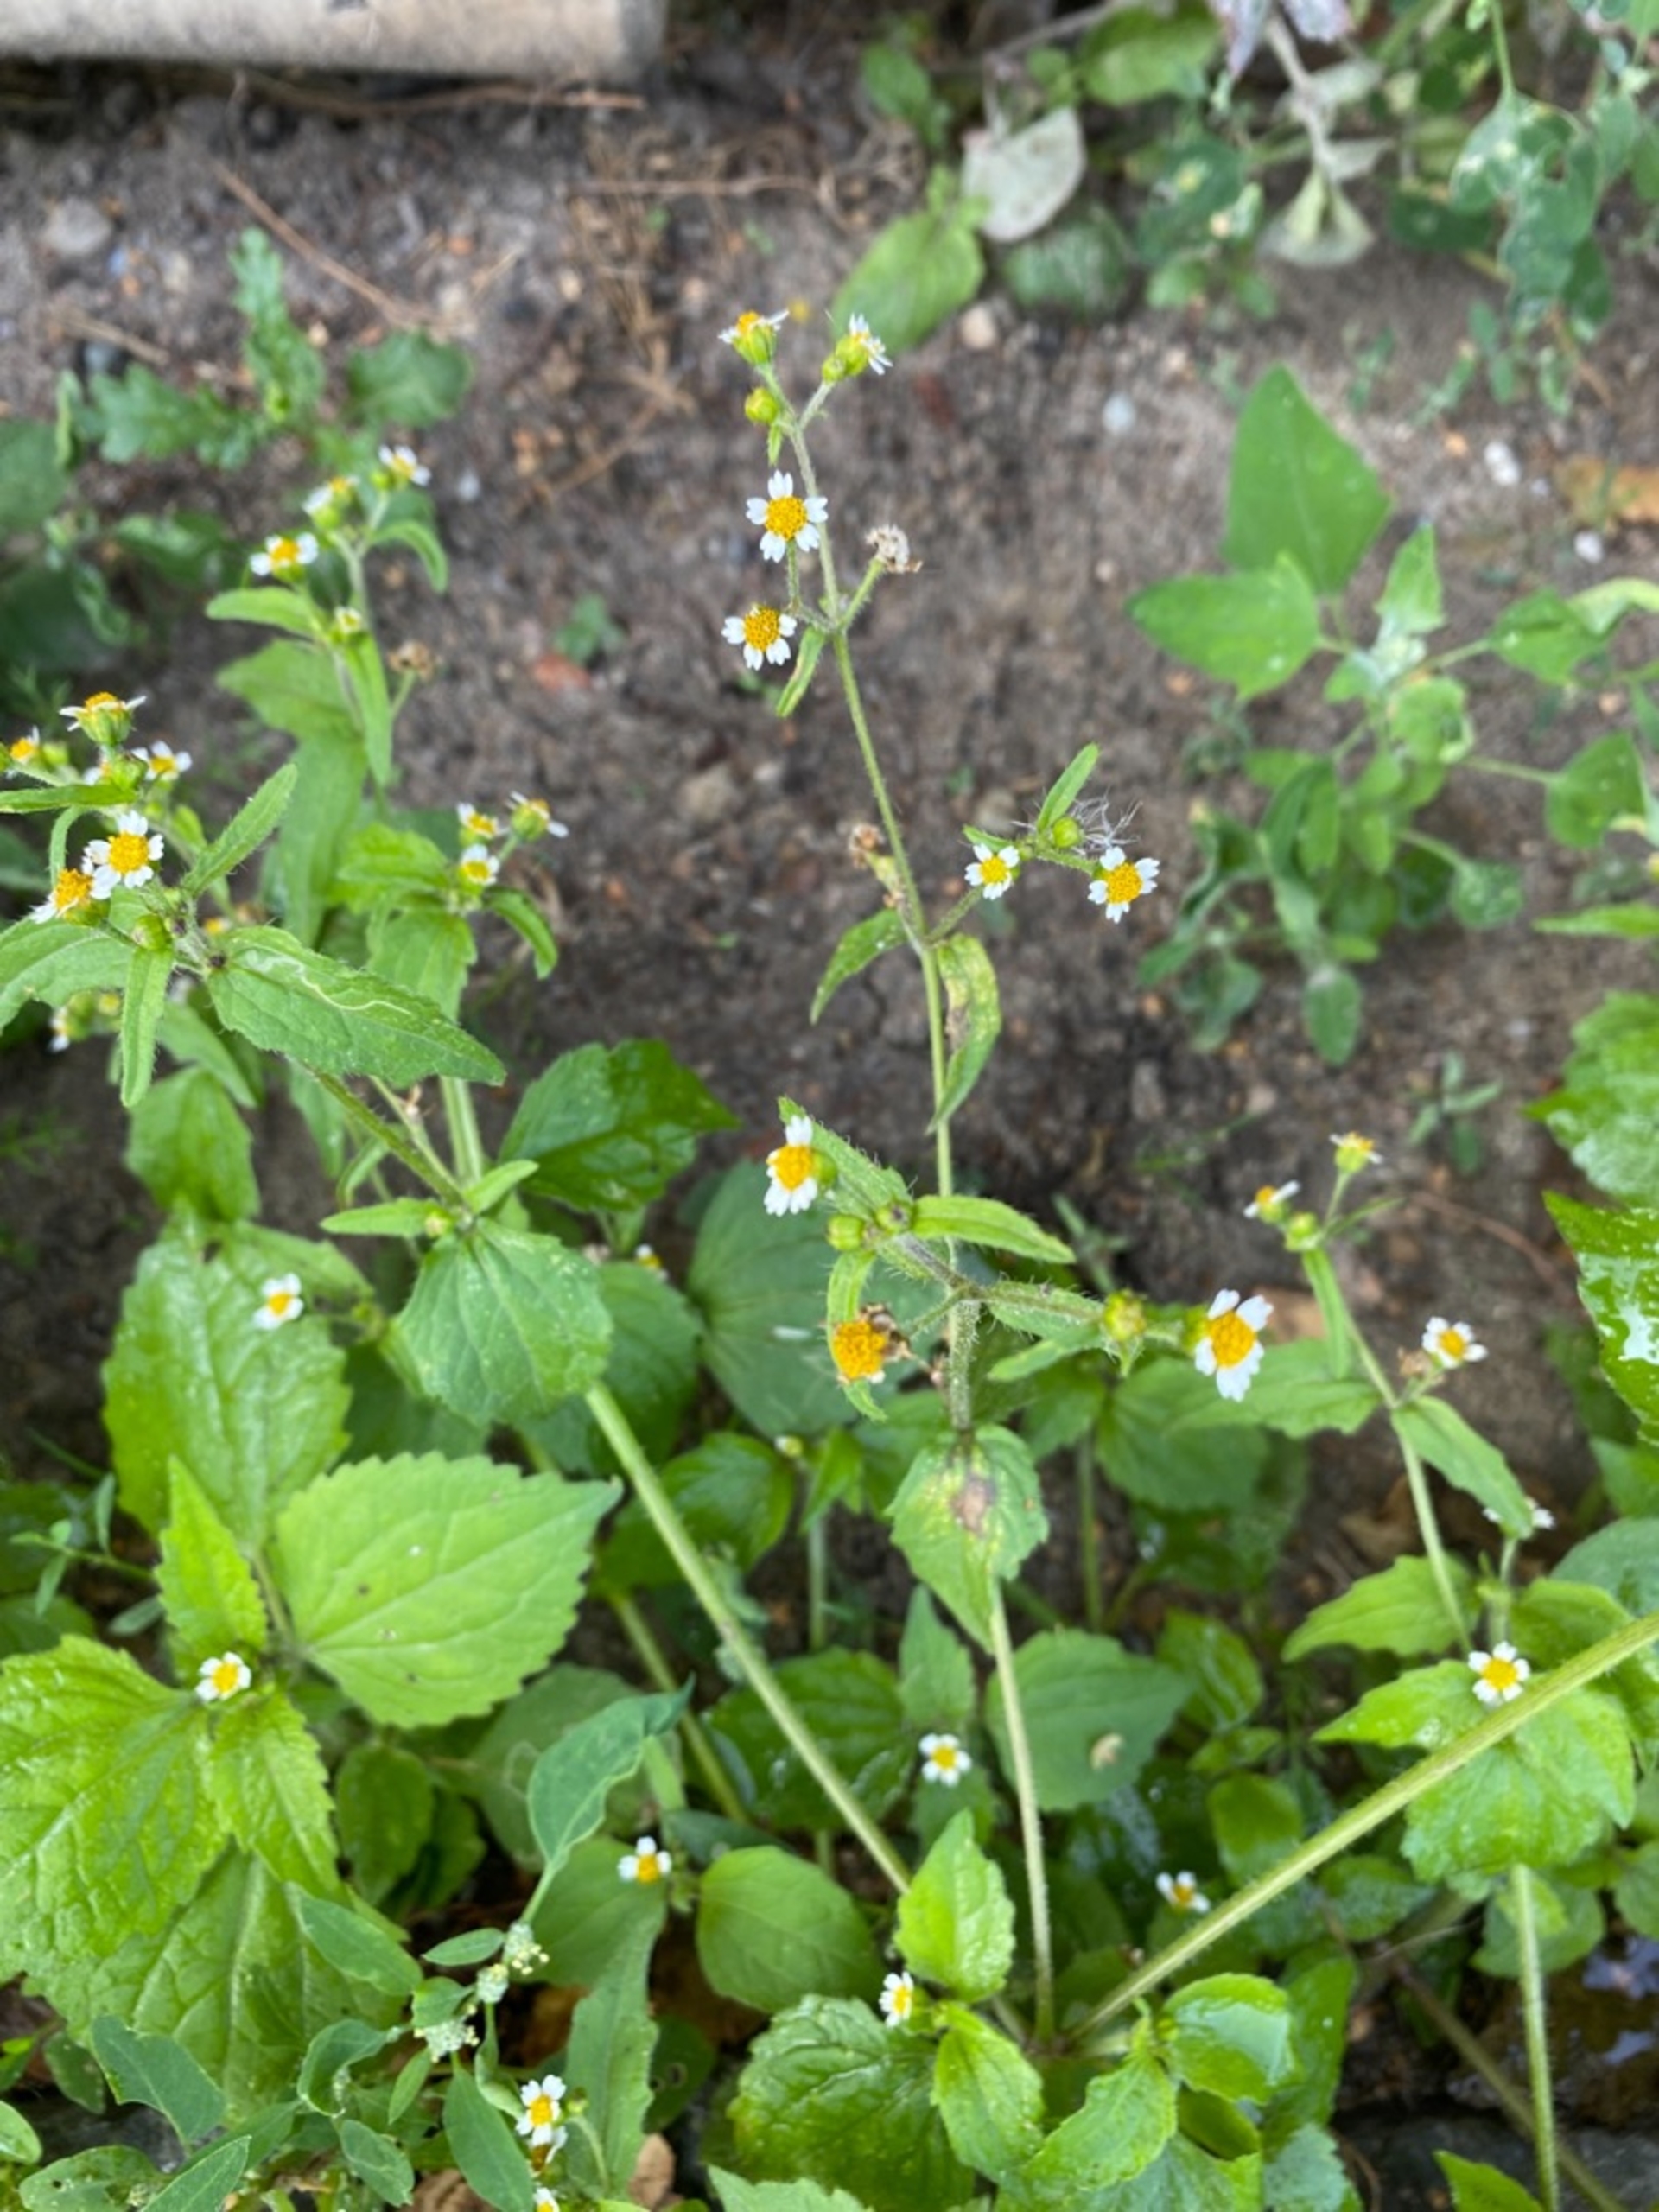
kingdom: Plantae
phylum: Tracheophyta
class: Magnoliopsida
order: Asterales
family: Asteraceae
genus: Galinsoga
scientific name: Galinsoga quadriradiata
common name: Kirtel-kortstråle
